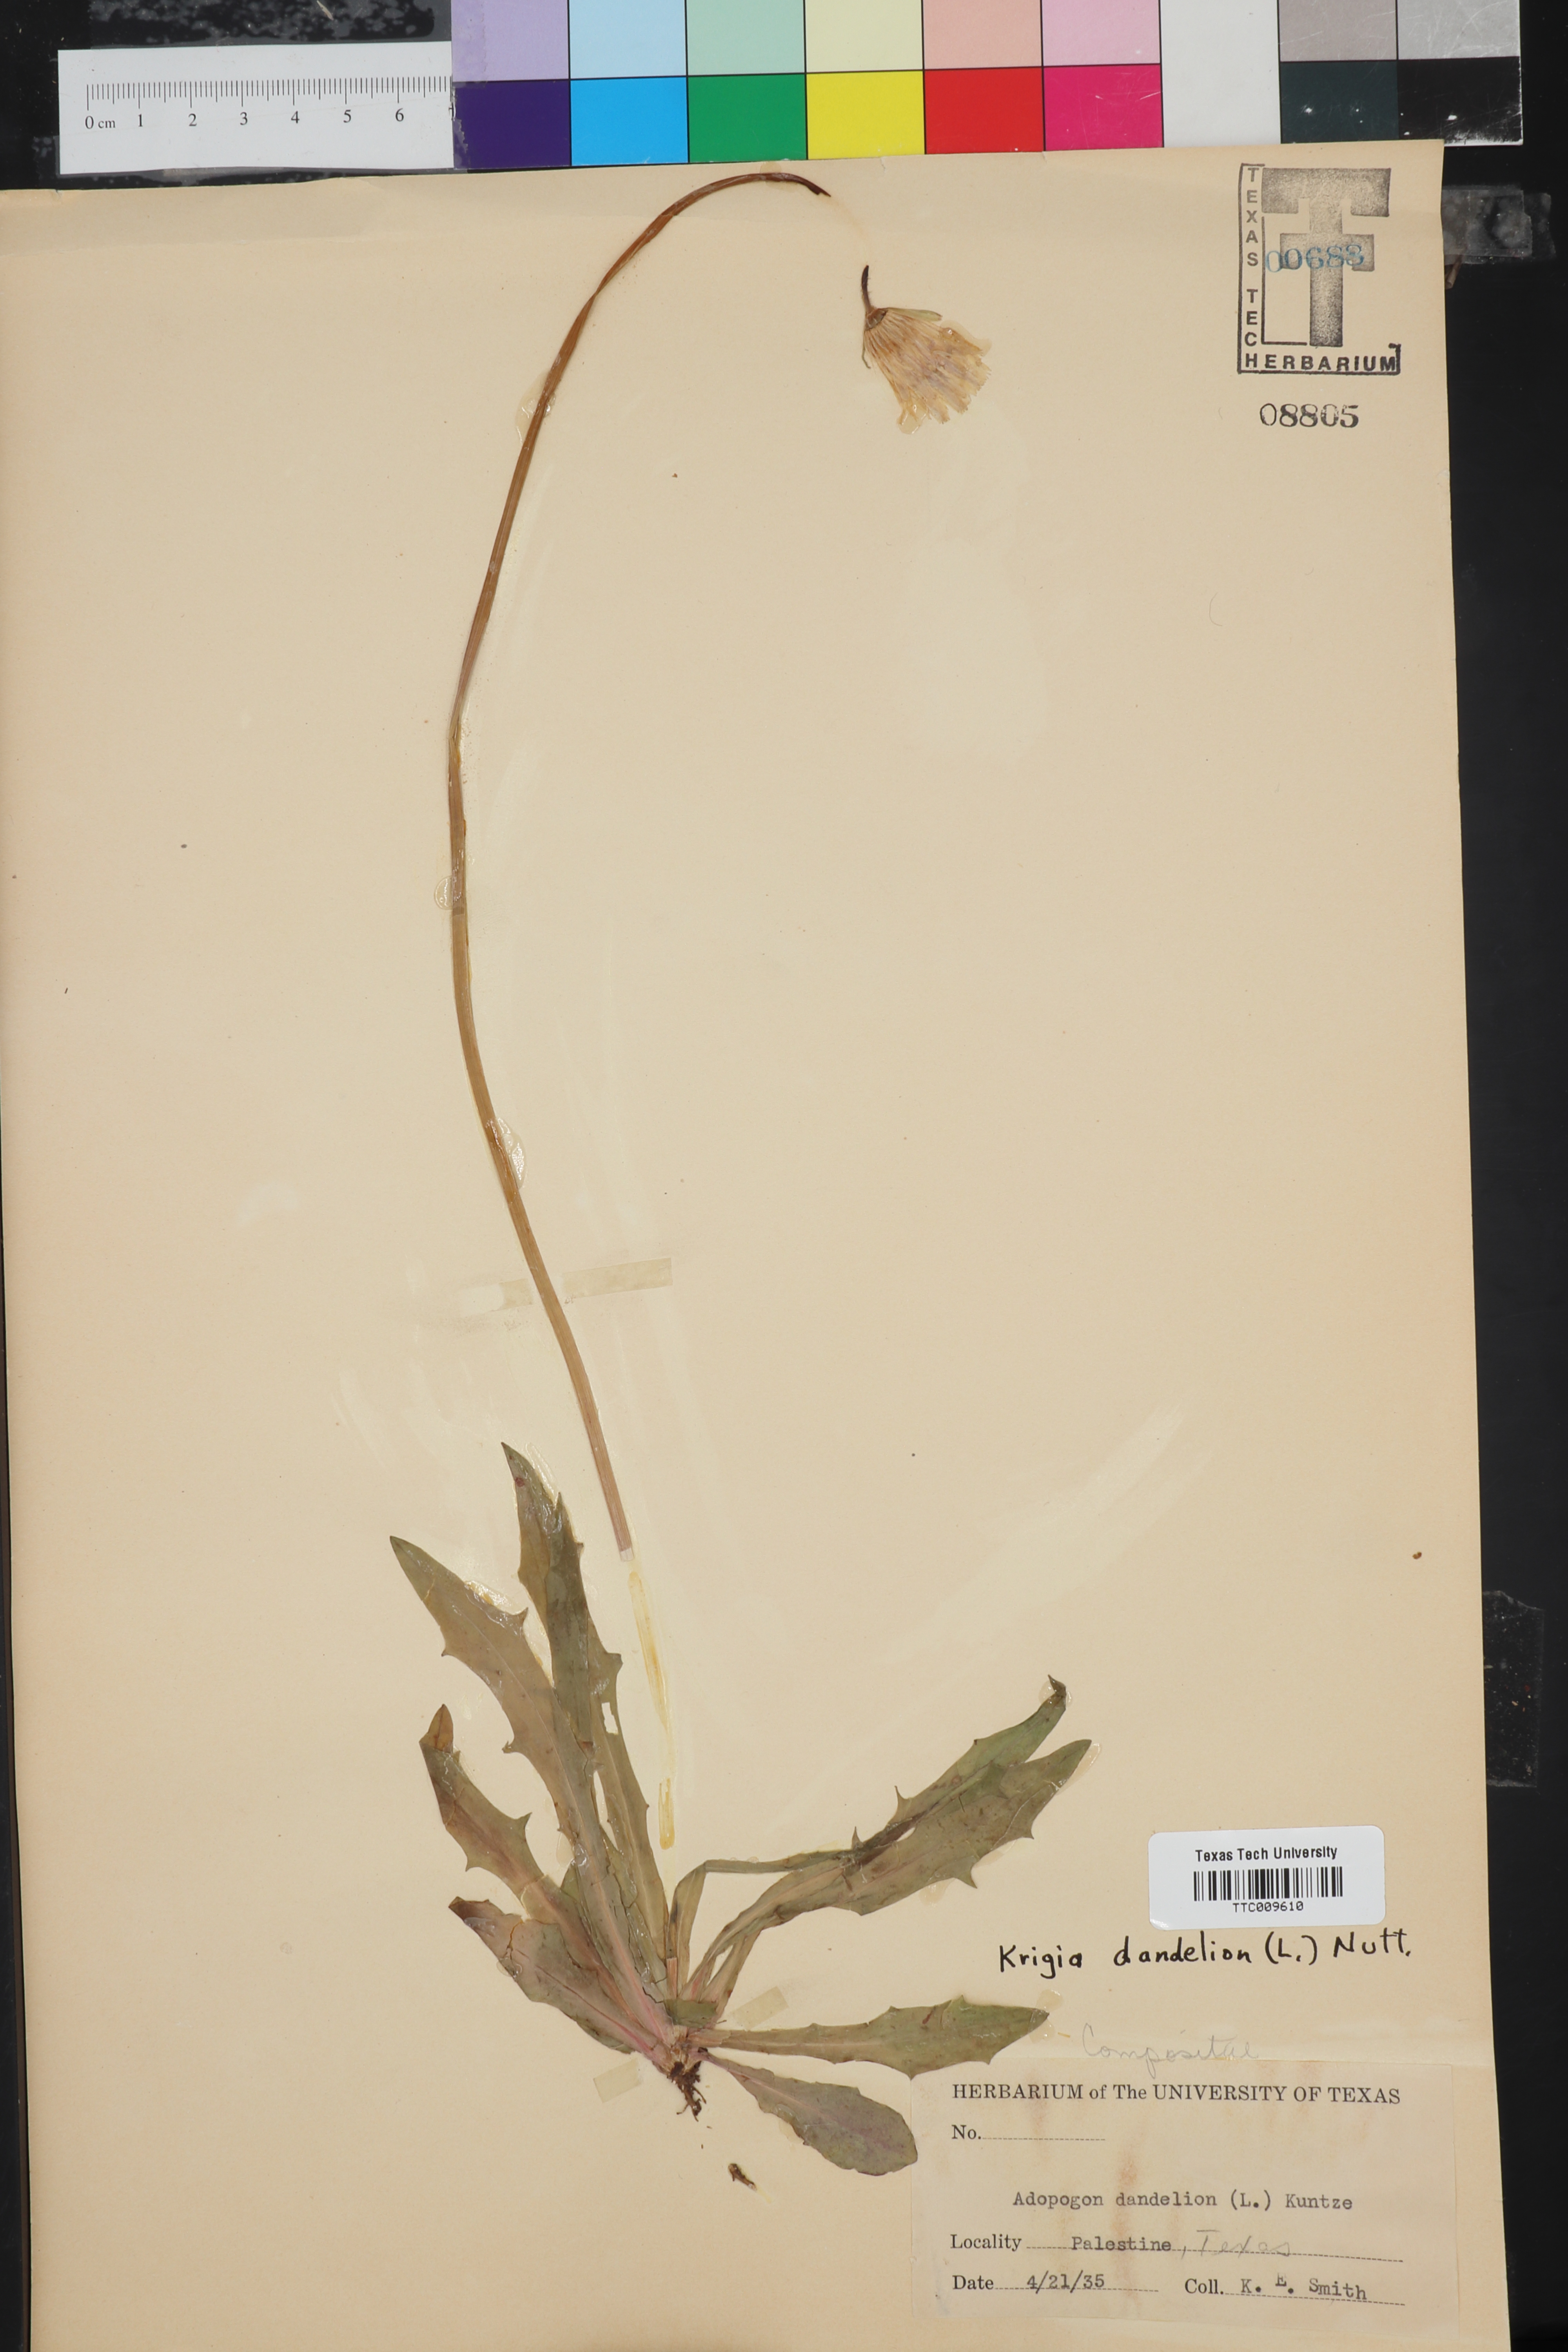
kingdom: Plantae
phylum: Tracheophyta
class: Magnoliopsida
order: Asterales
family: Asteraceae
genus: Krigia
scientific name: Krigia dandelion
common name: Colonial dwarf-dandelion
